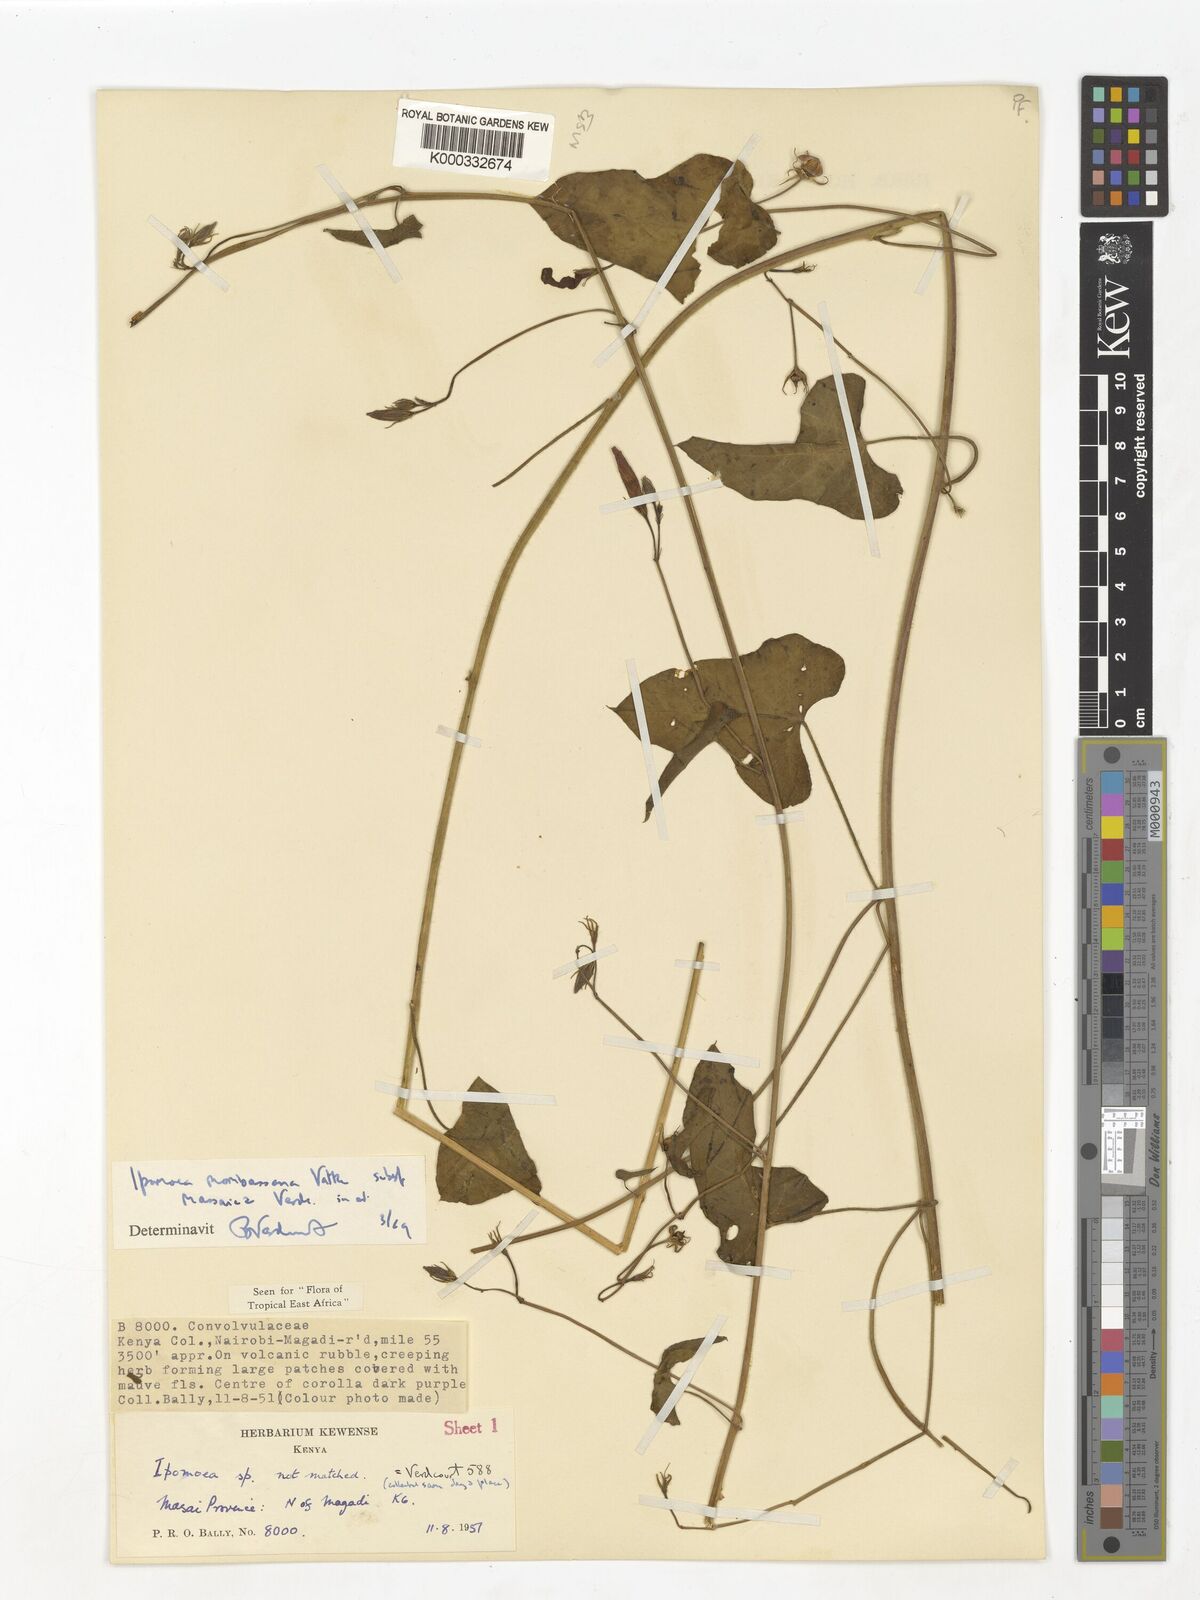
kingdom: Plantae
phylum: Tracheophyta
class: Magnoliopsida
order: Solanales
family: Convolvulaceae
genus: Ipomoea
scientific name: Ipomoea mombassana
